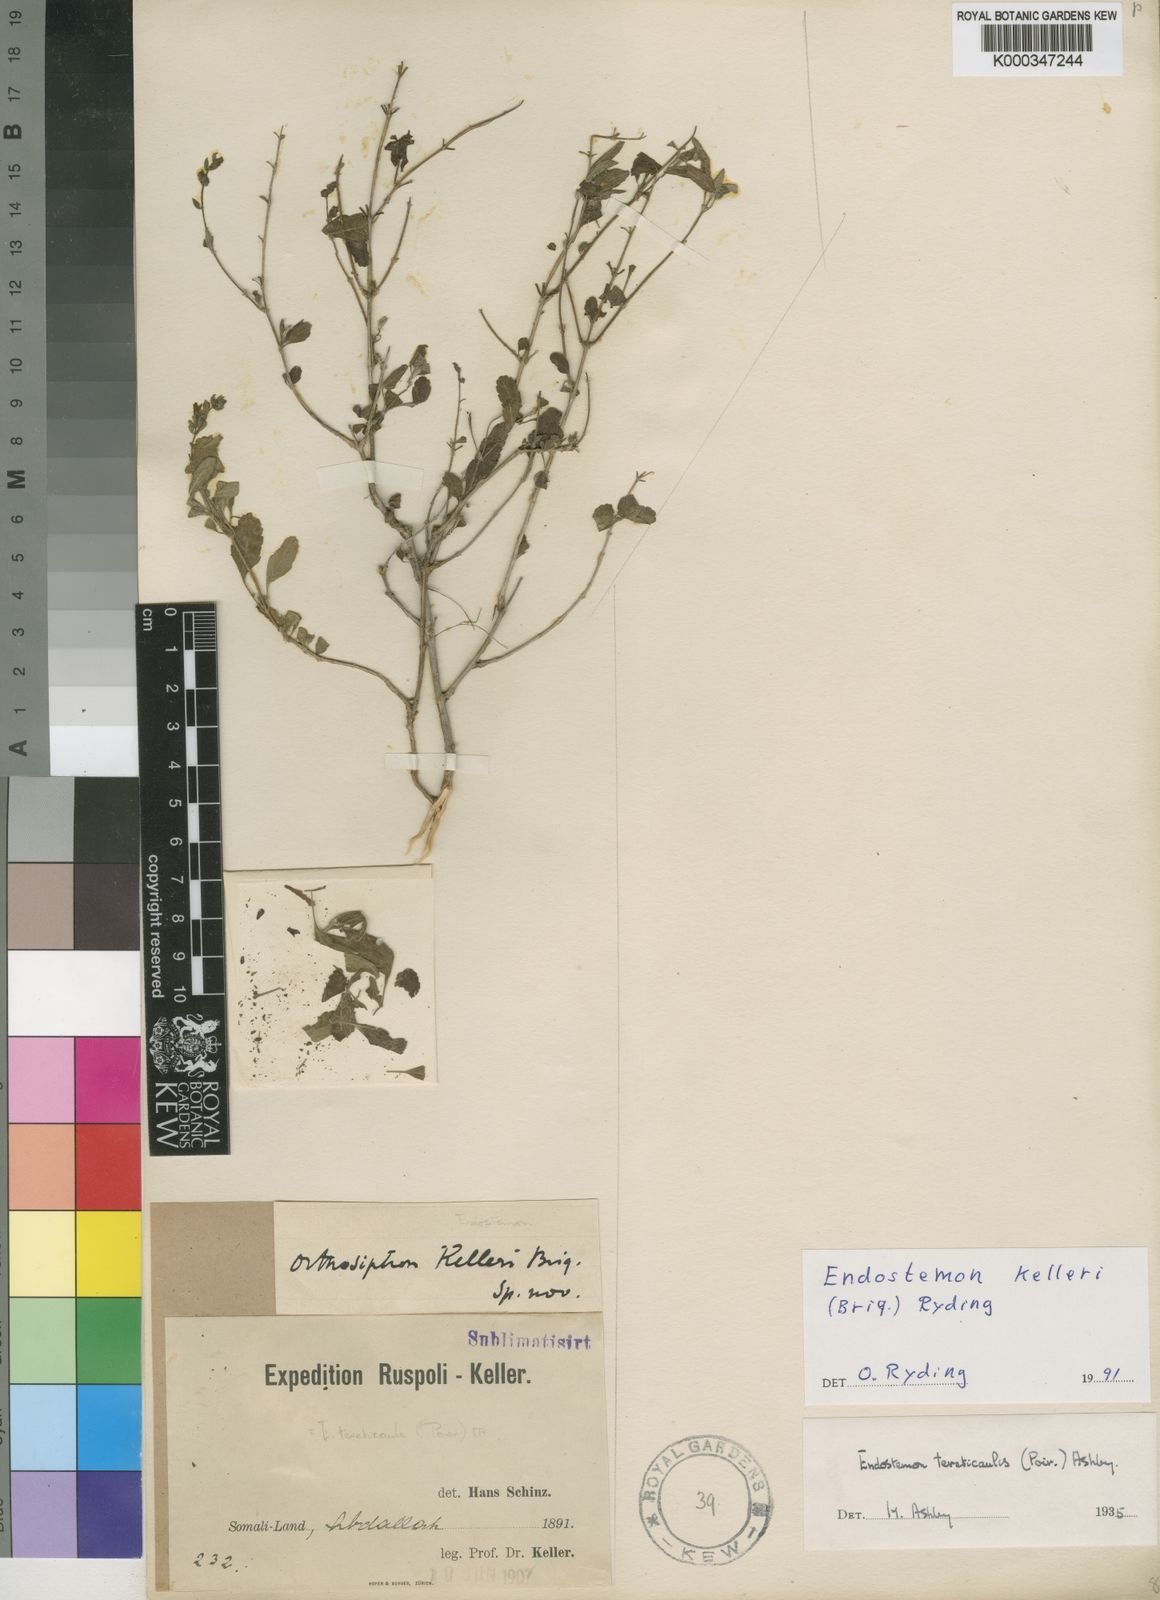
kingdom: Plantae
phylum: Tracheophyta
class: Magnoliopsida
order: Lamiales
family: Lamiaceae
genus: Endostemon
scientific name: Endostemon
